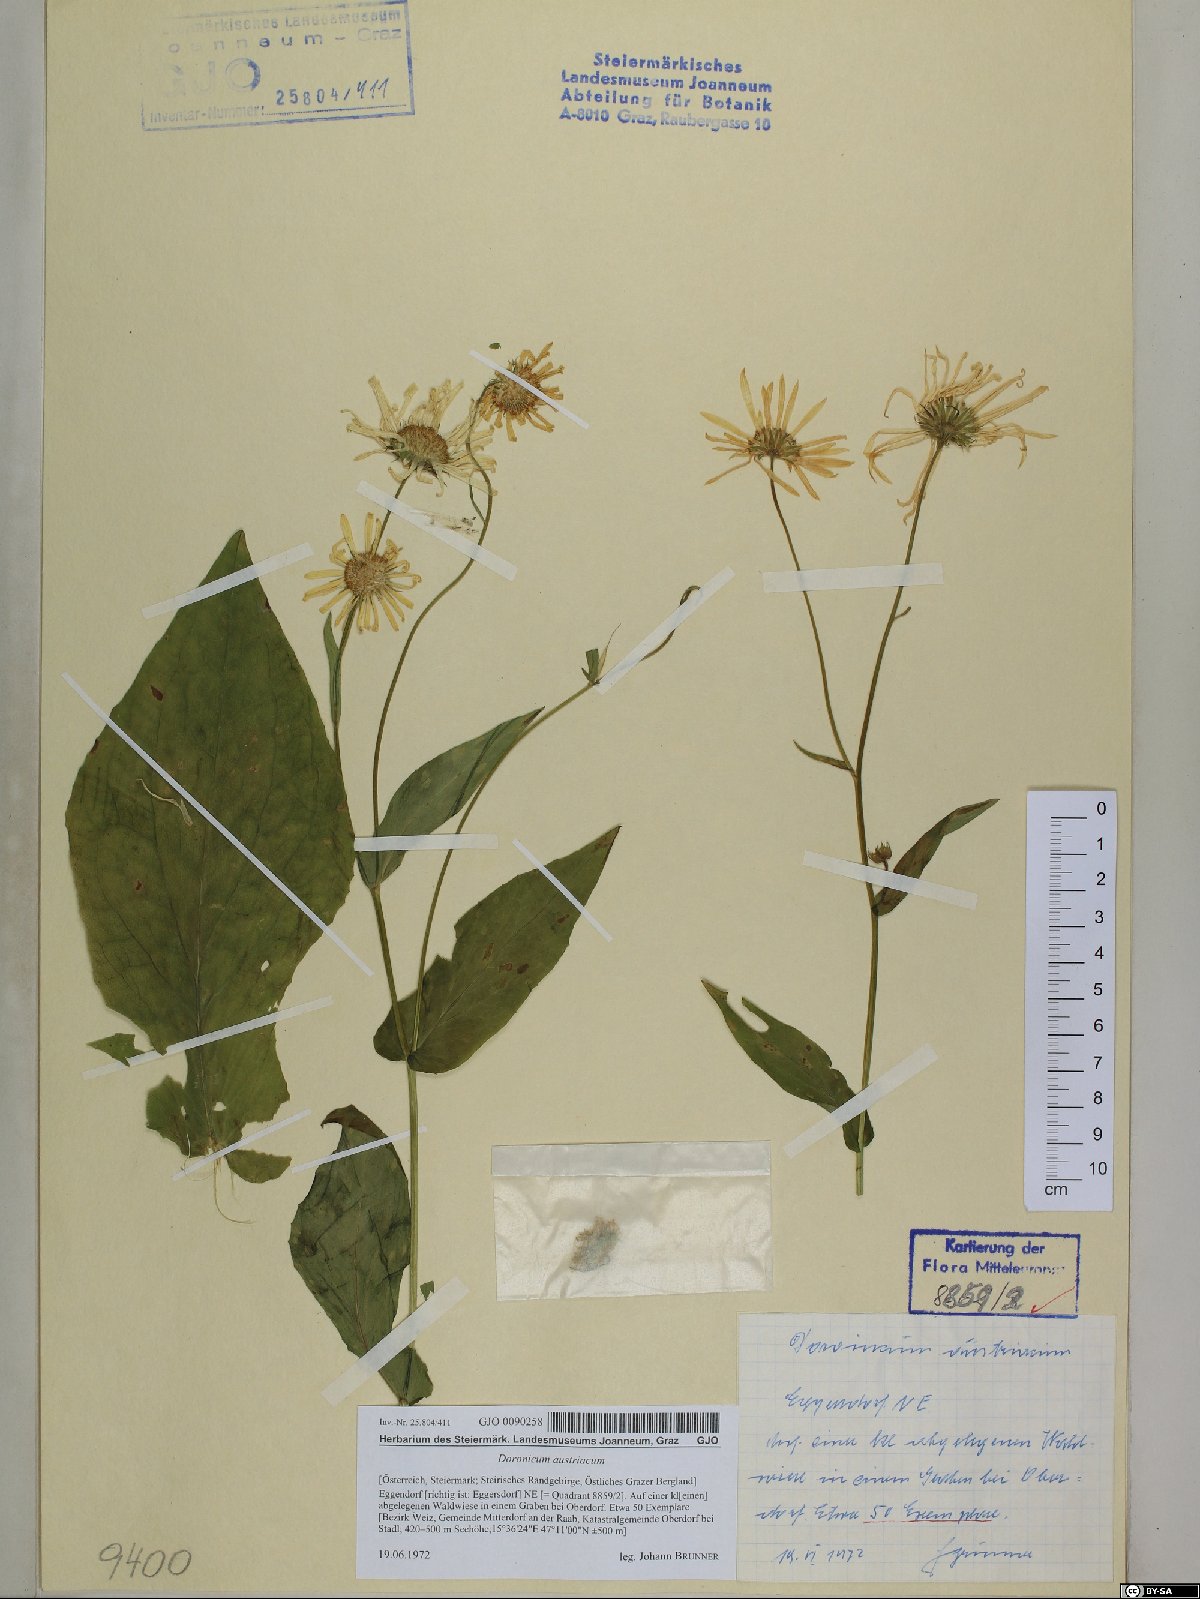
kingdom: Plantae
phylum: Tracheophyta
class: Magnoliopsida
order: Asterales
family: Asteraceae
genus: Doronicum
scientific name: Doronicum austriacum
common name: Austrian leopard's-bane
